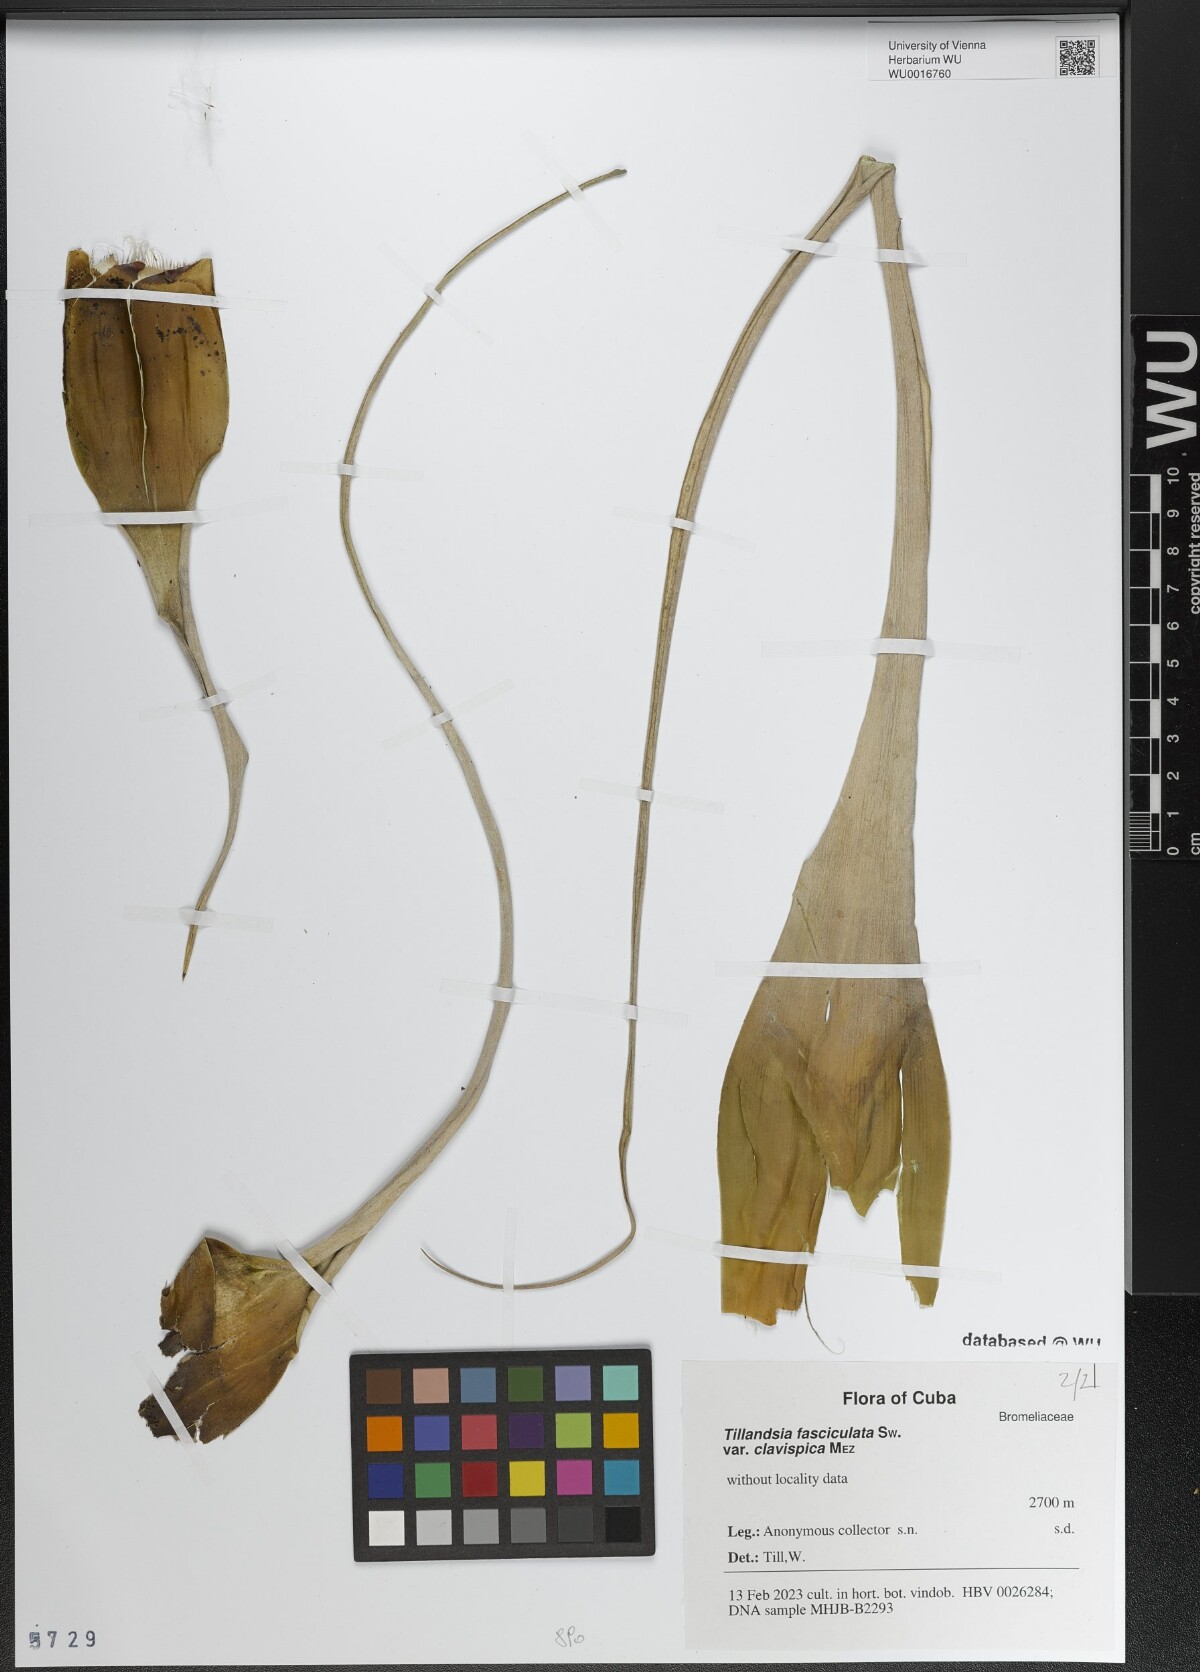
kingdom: Plantae
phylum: Tracheophyta
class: Liliopsida
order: Poales
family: Bromeliaceae
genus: Tillandsia
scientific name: Tillandsia fasciculata
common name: Giant airplant
